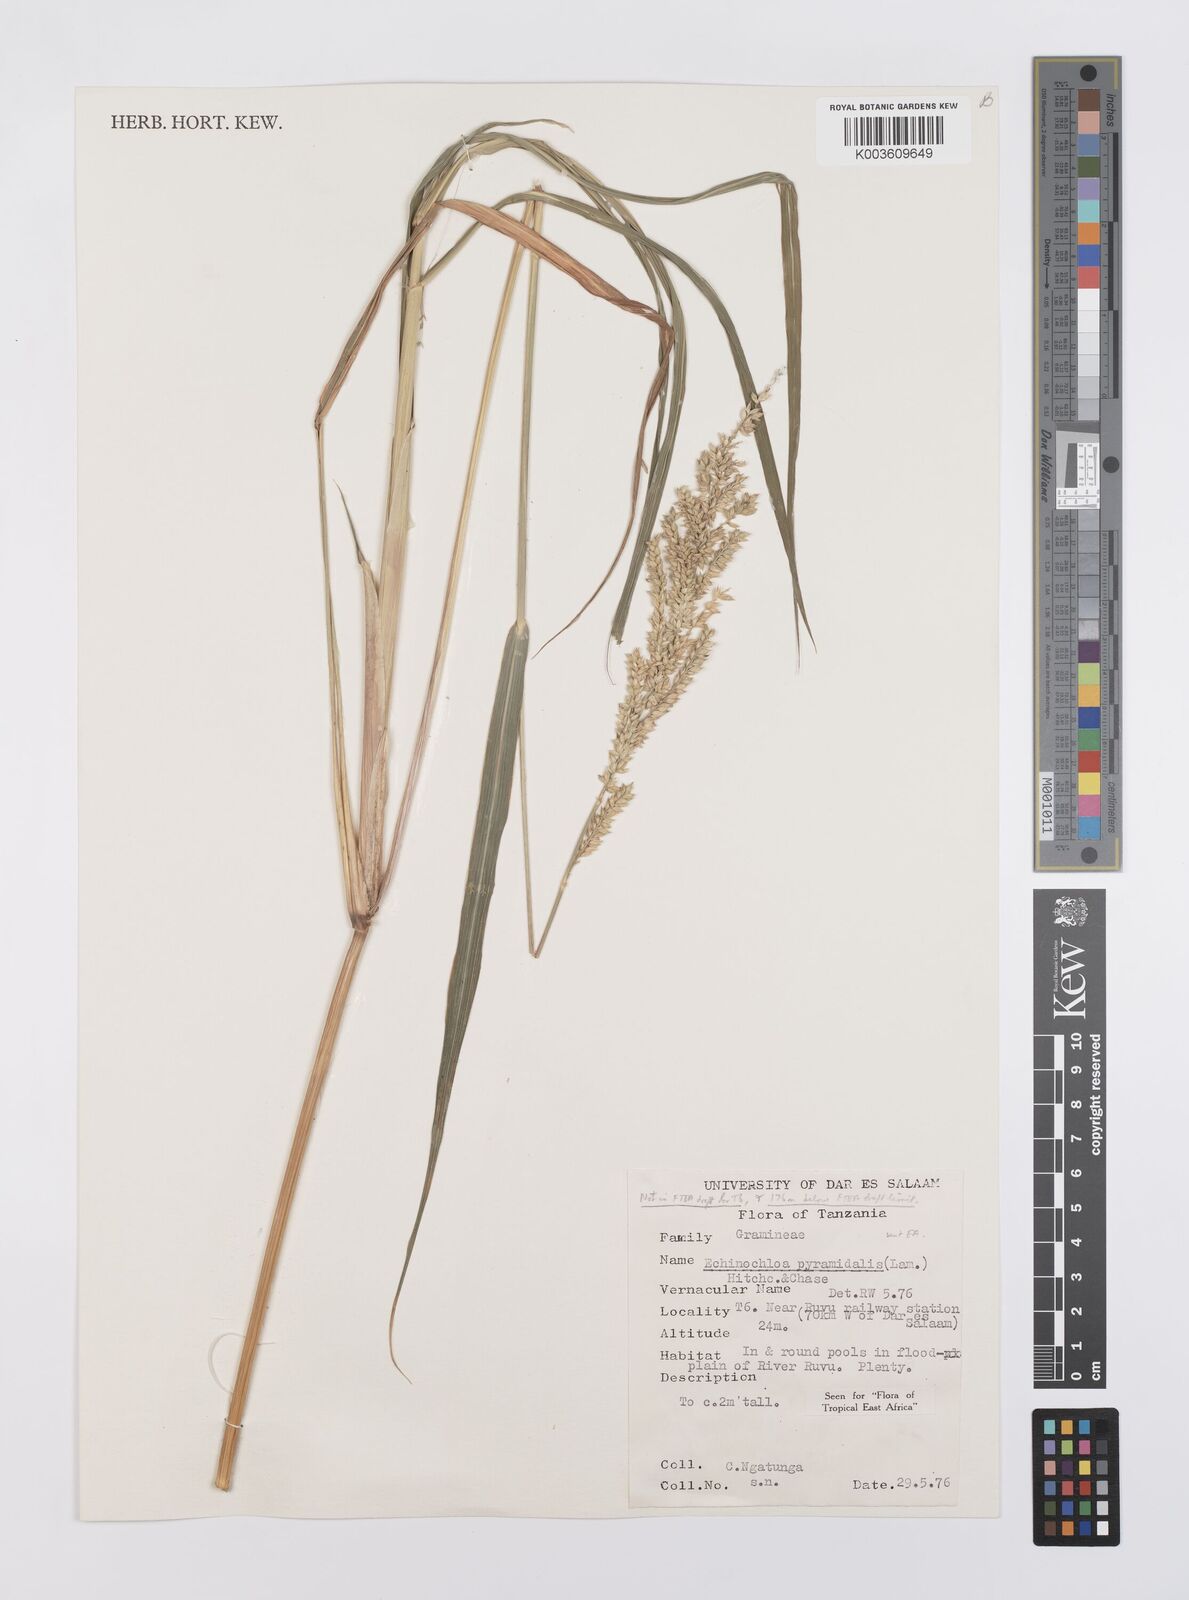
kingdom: Plantae
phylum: Tracheophyta
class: Liliopsida
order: Poales
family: Poaceae
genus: Echinochloa
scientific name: Echinochloa pyramidalis
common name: Antelope grass
